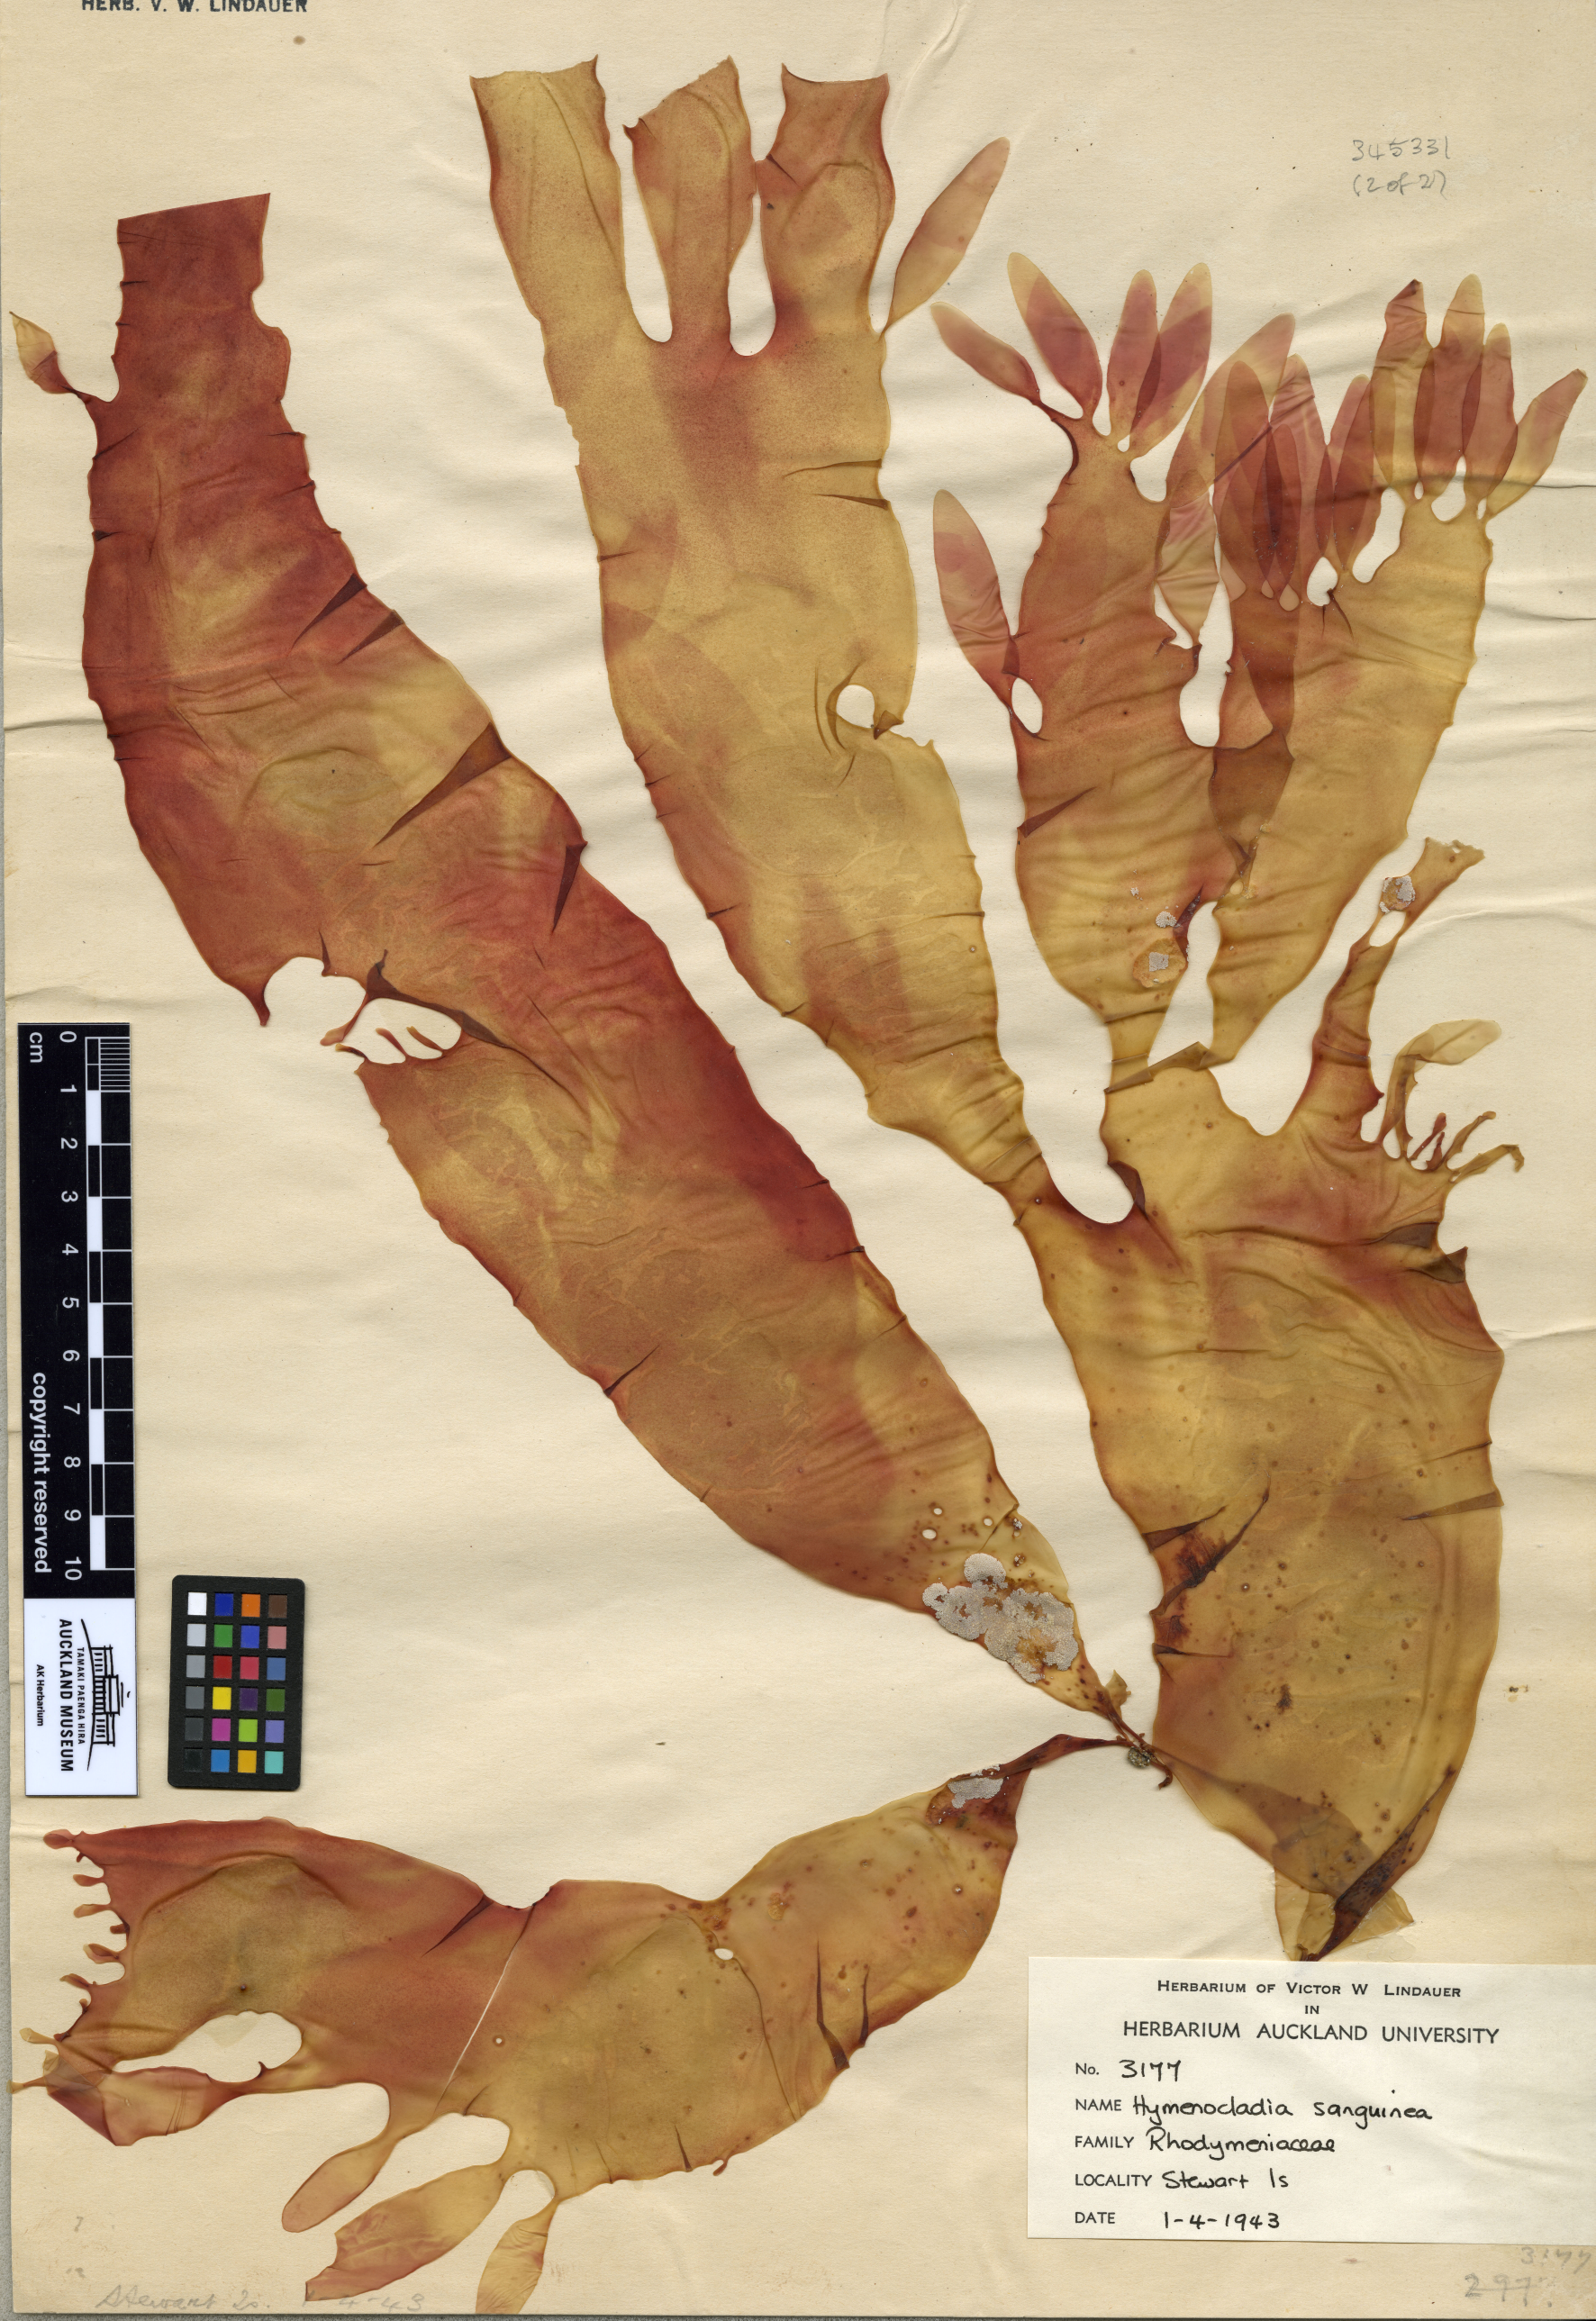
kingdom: Plantae
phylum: Rhodophyta
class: Florideophyceae
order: Rhodymeniales
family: Hymenocladiaceae
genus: Hymenocladia
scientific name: Hymenocladia sanguinea
